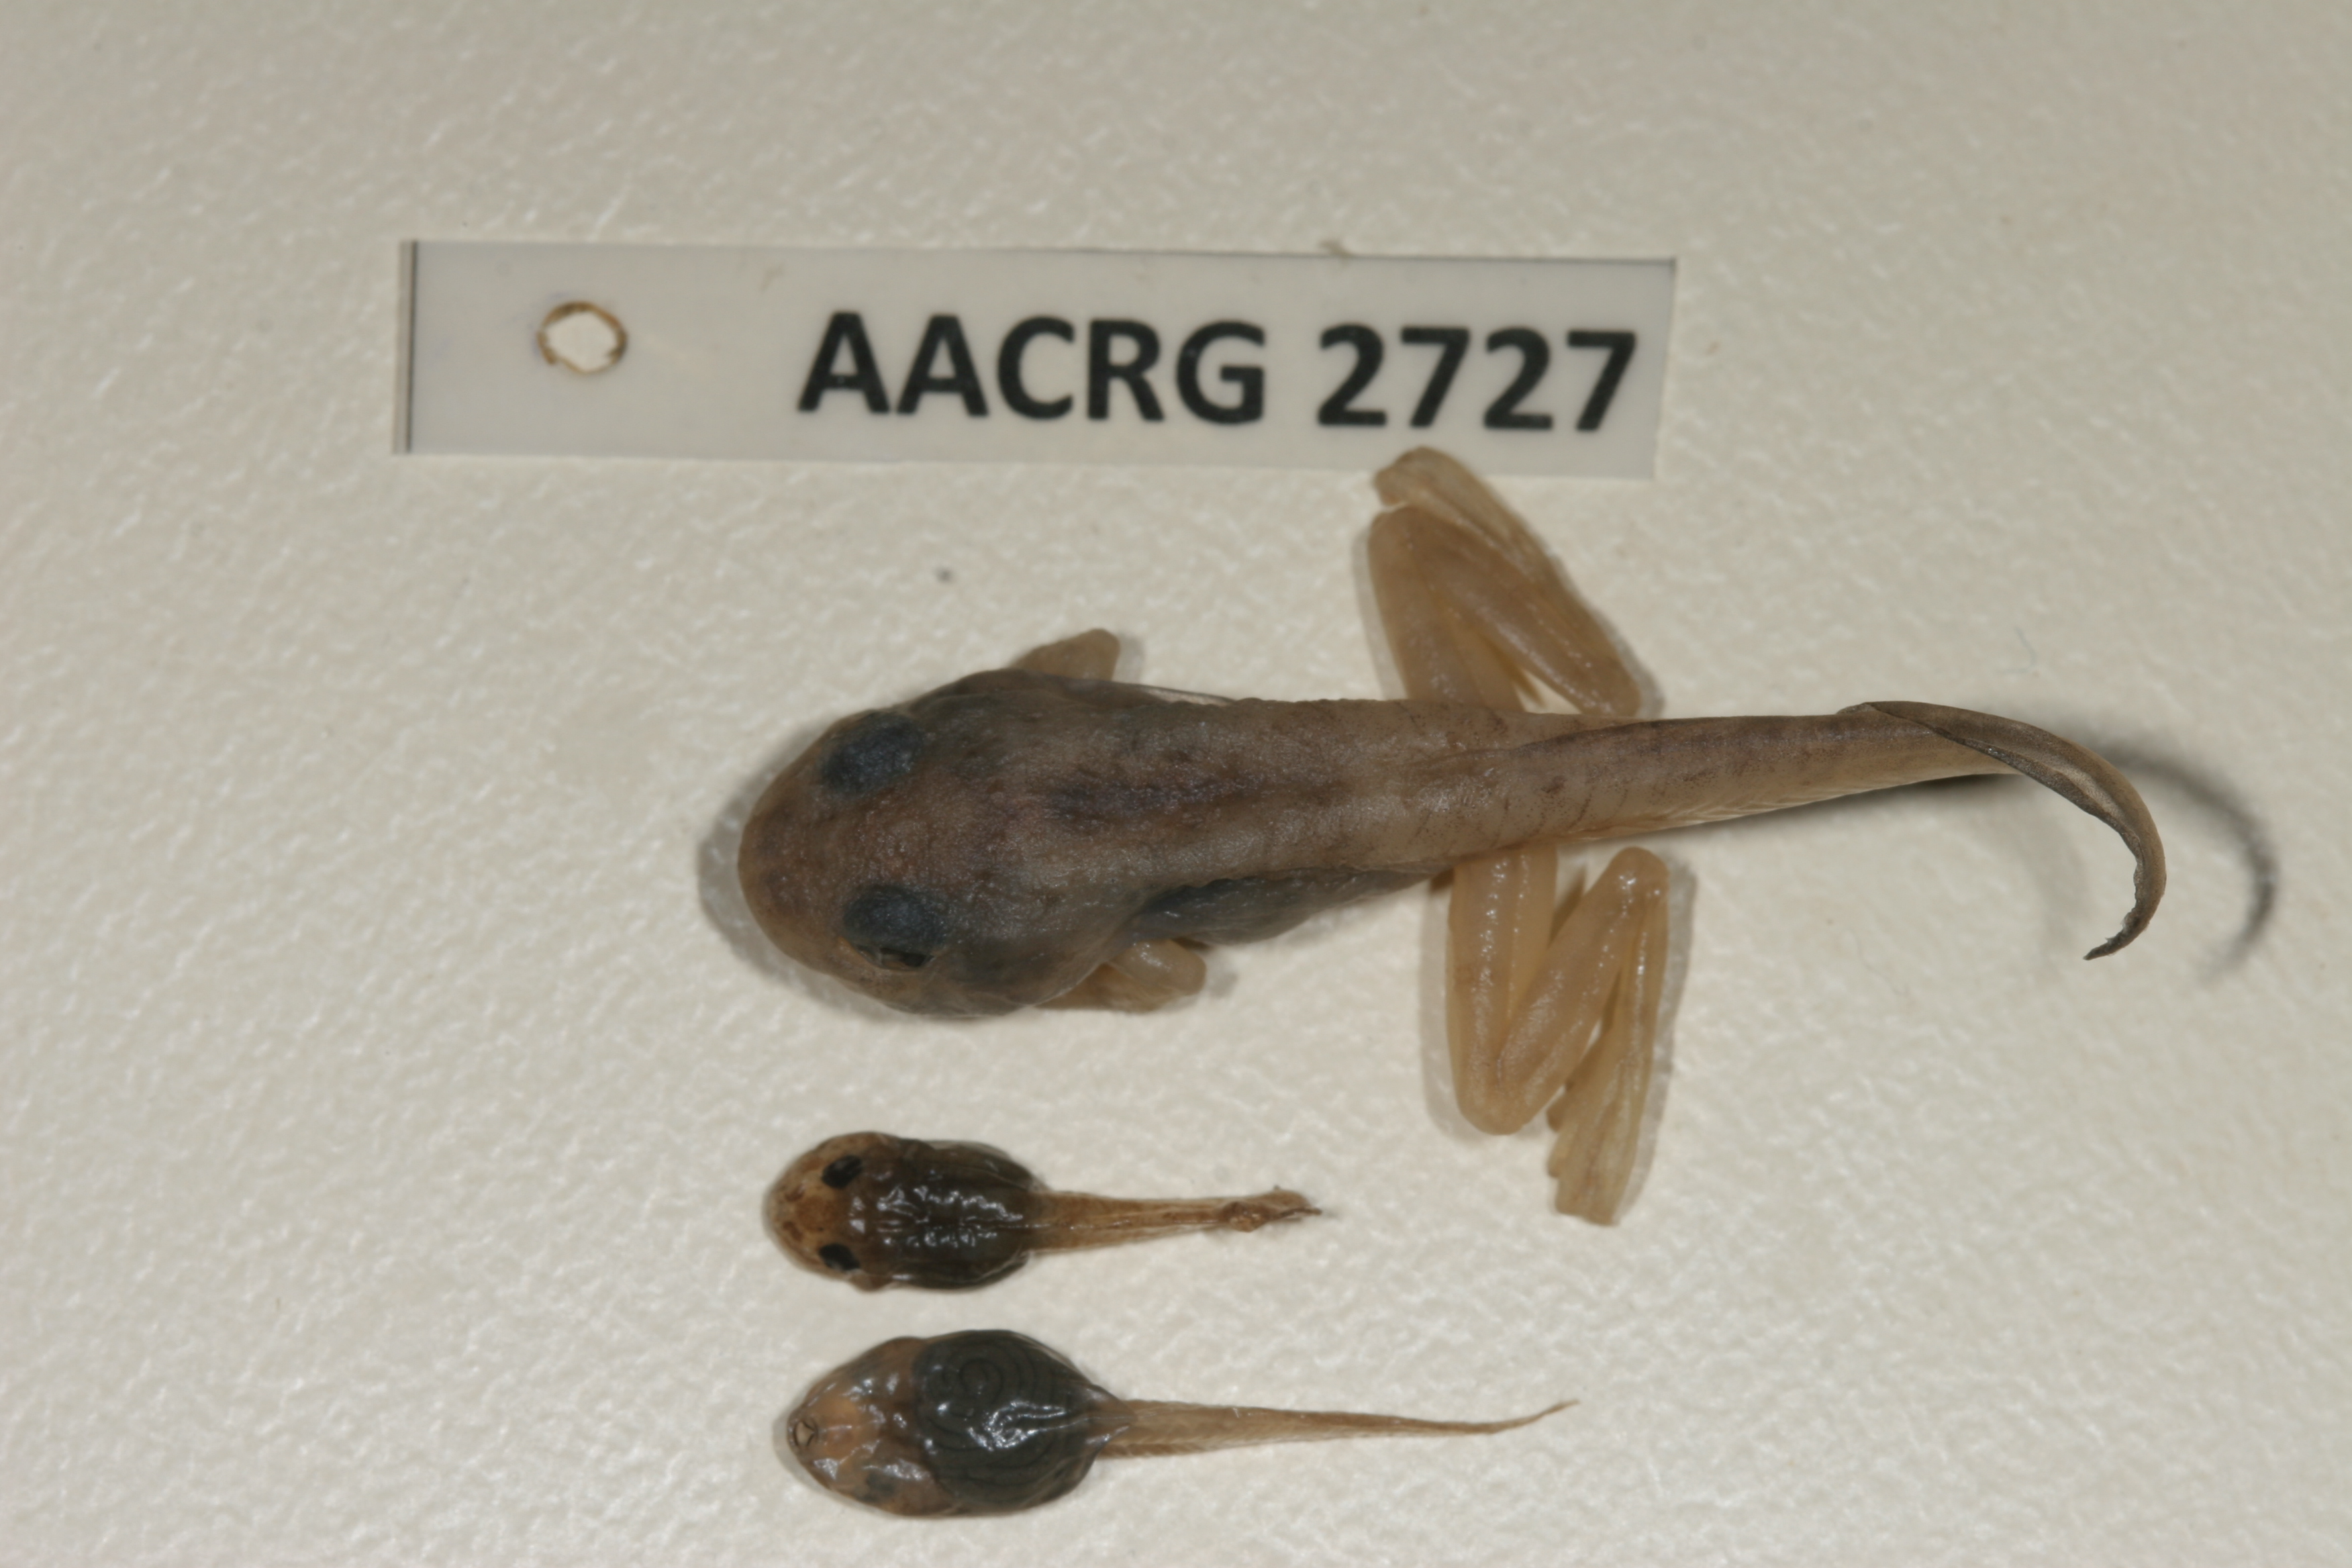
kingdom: Animalia
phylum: Chordata
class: Amphibia
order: Anura
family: Rhacophoridae
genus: Chiromantis
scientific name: Chiromantis xerampelina
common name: African gray treefrog
